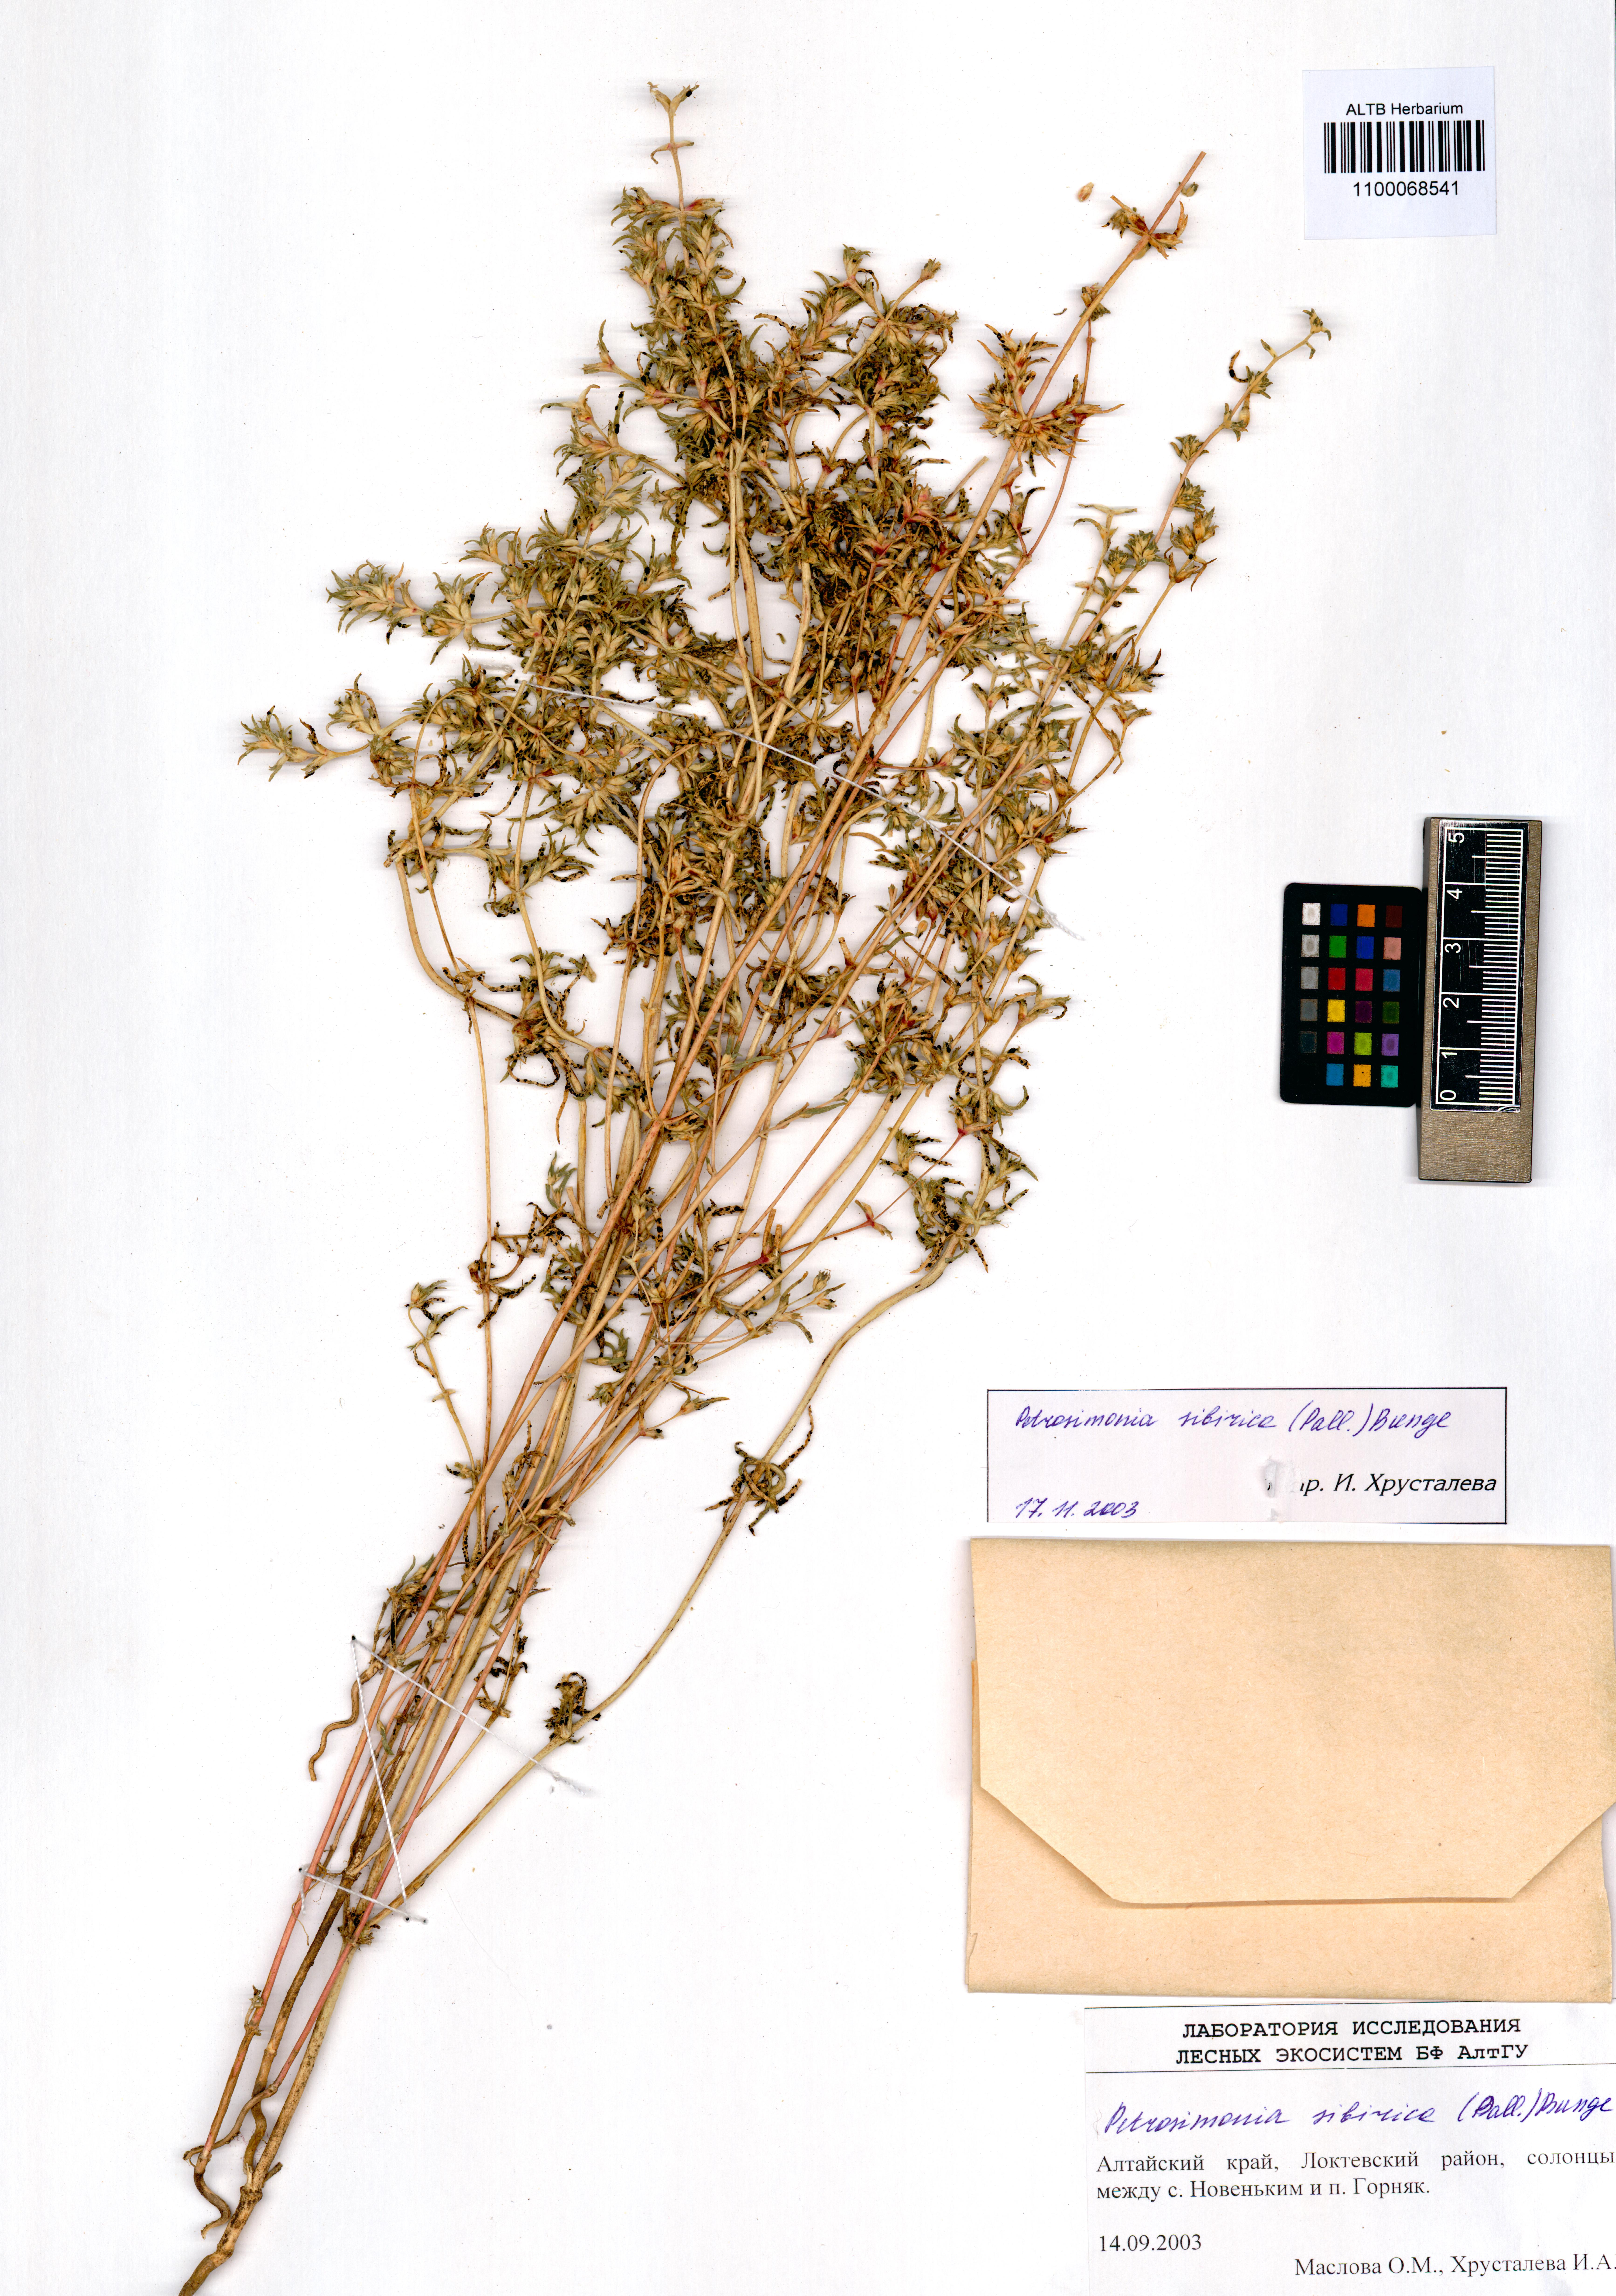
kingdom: Plantae
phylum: Tracheophyta
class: Magnoliopsida
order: Caryophyllales
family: Amaranthaceae
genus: Petrosimonia
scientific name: Petrosimonia sibirica
